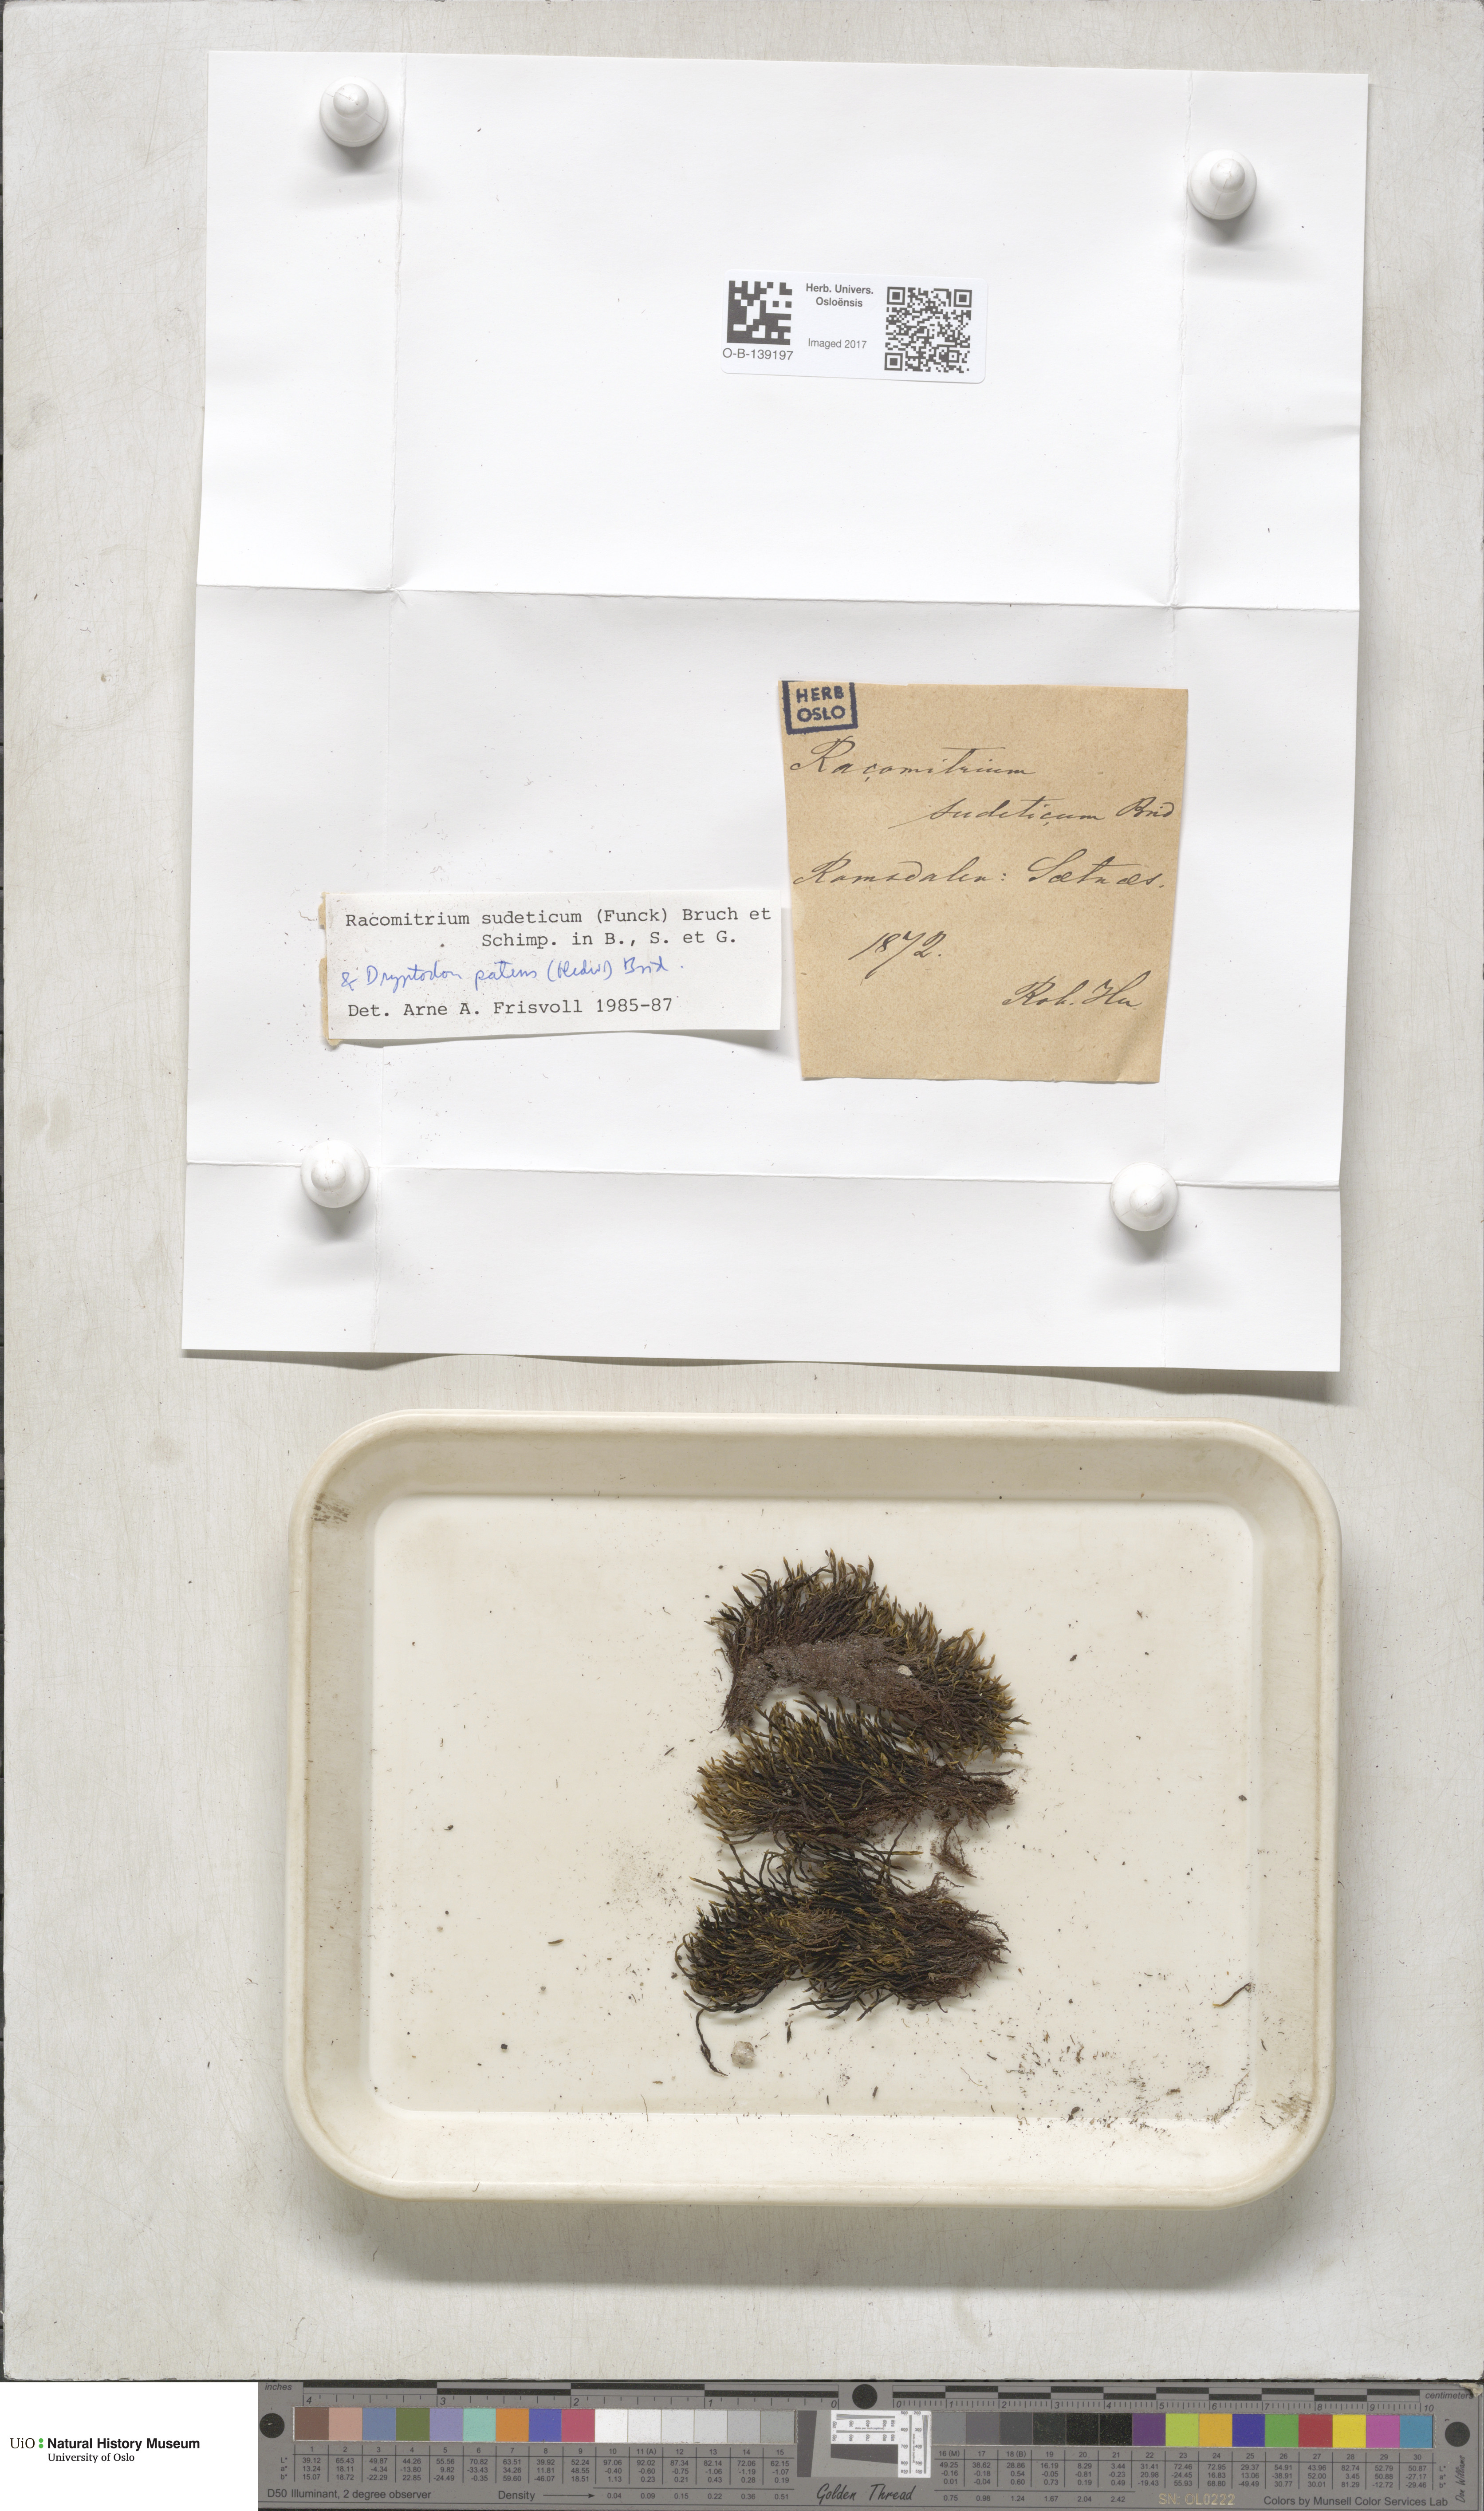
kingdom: Plantae
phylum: Bryophyta
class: Bryopsida
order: Grimmiales
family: Grimmiaceae
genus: Bucklandiella
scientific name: Bucklandiella sudetica
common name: Slender fringe-moss
